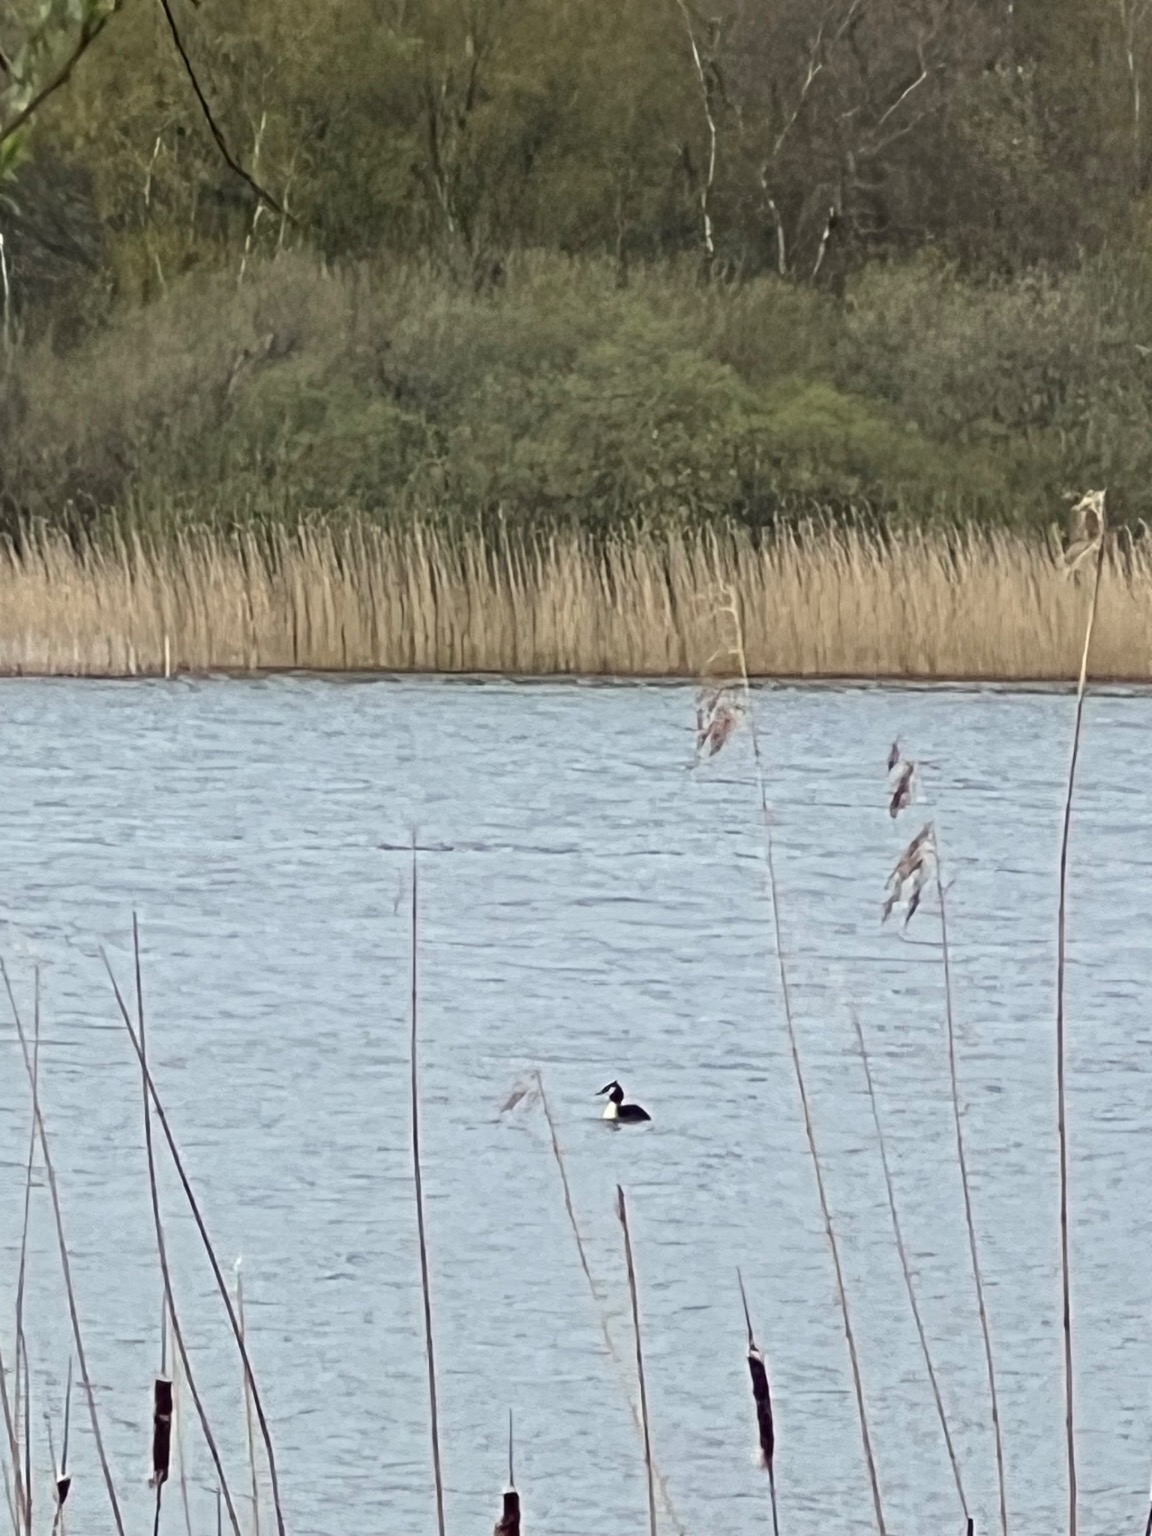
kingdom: Animalia
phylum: Chordata
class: Aves
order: Podicipediformes
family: Podicipedidae
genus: Podiceps
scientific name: Podiceps cristatus
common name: Toppet lappedykker
